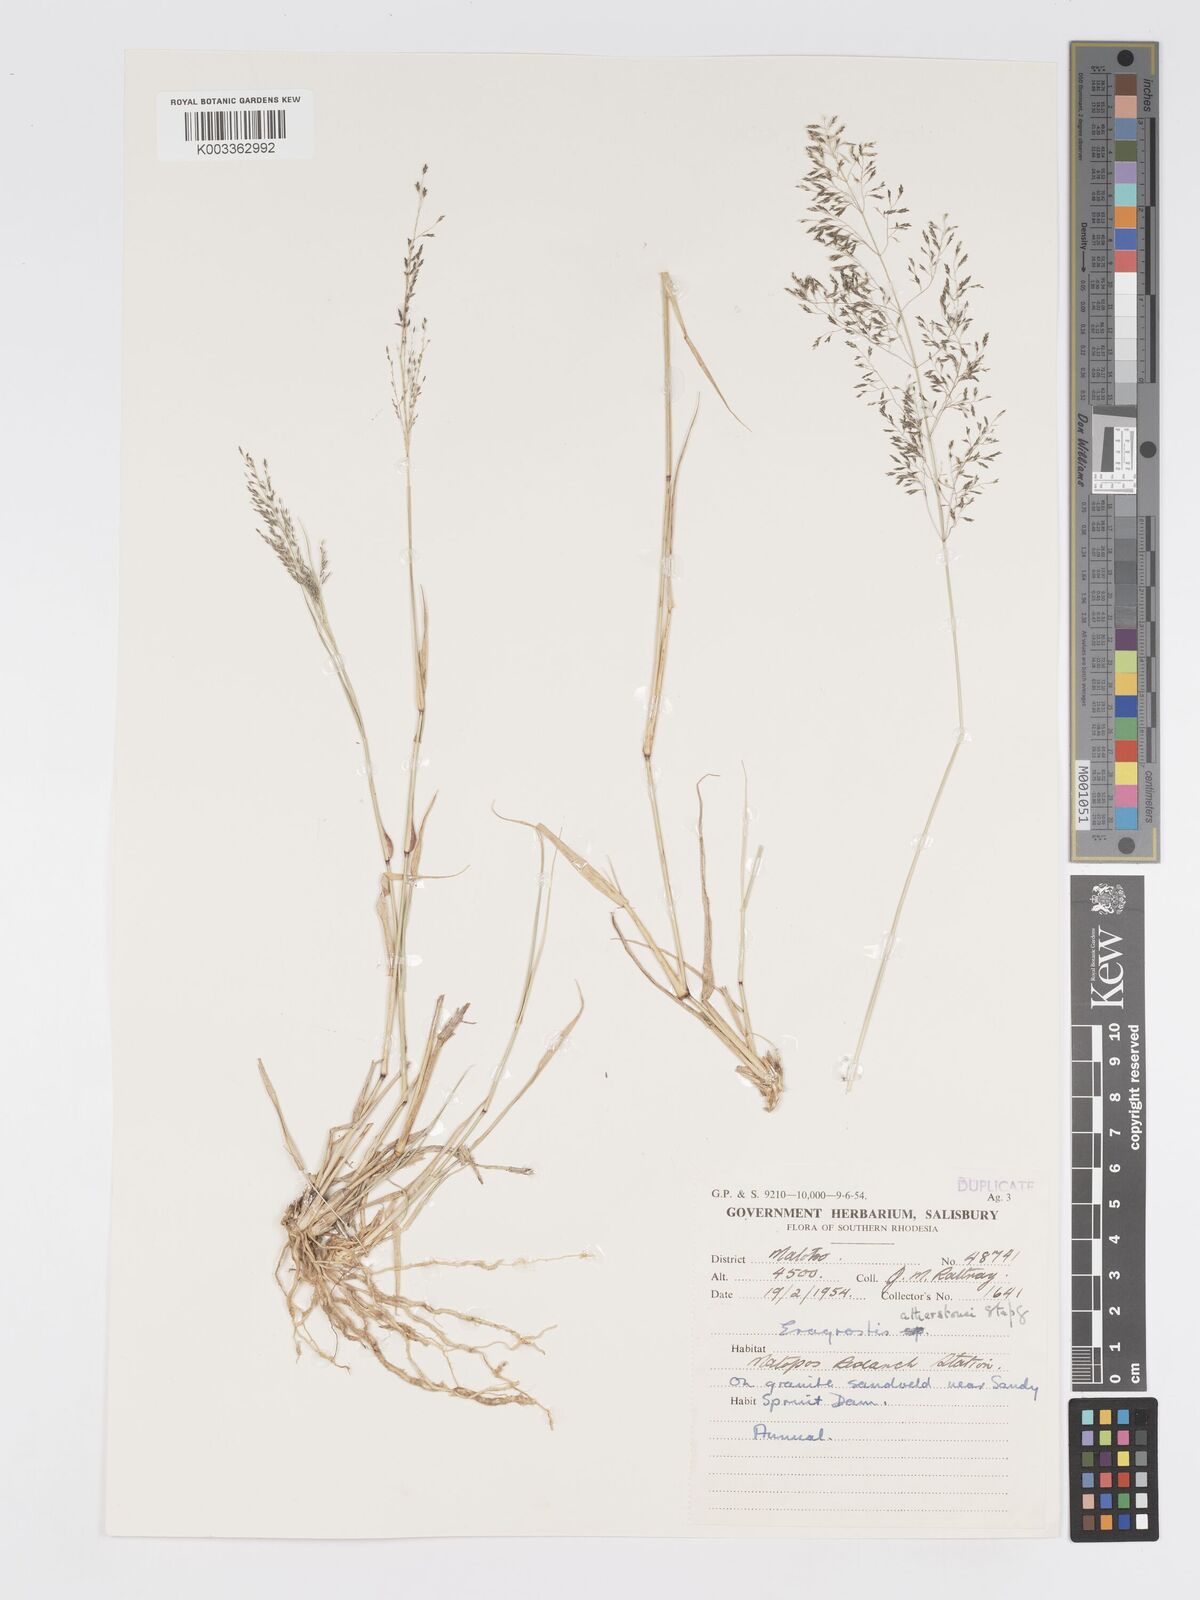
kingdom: Plantae
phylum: Tracheophyta
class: Liliopsida
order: Poales
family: Poaceae
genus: Eragrostis
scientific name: Eragrostis cylindriflora
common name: Cylinderflower lovegrass
